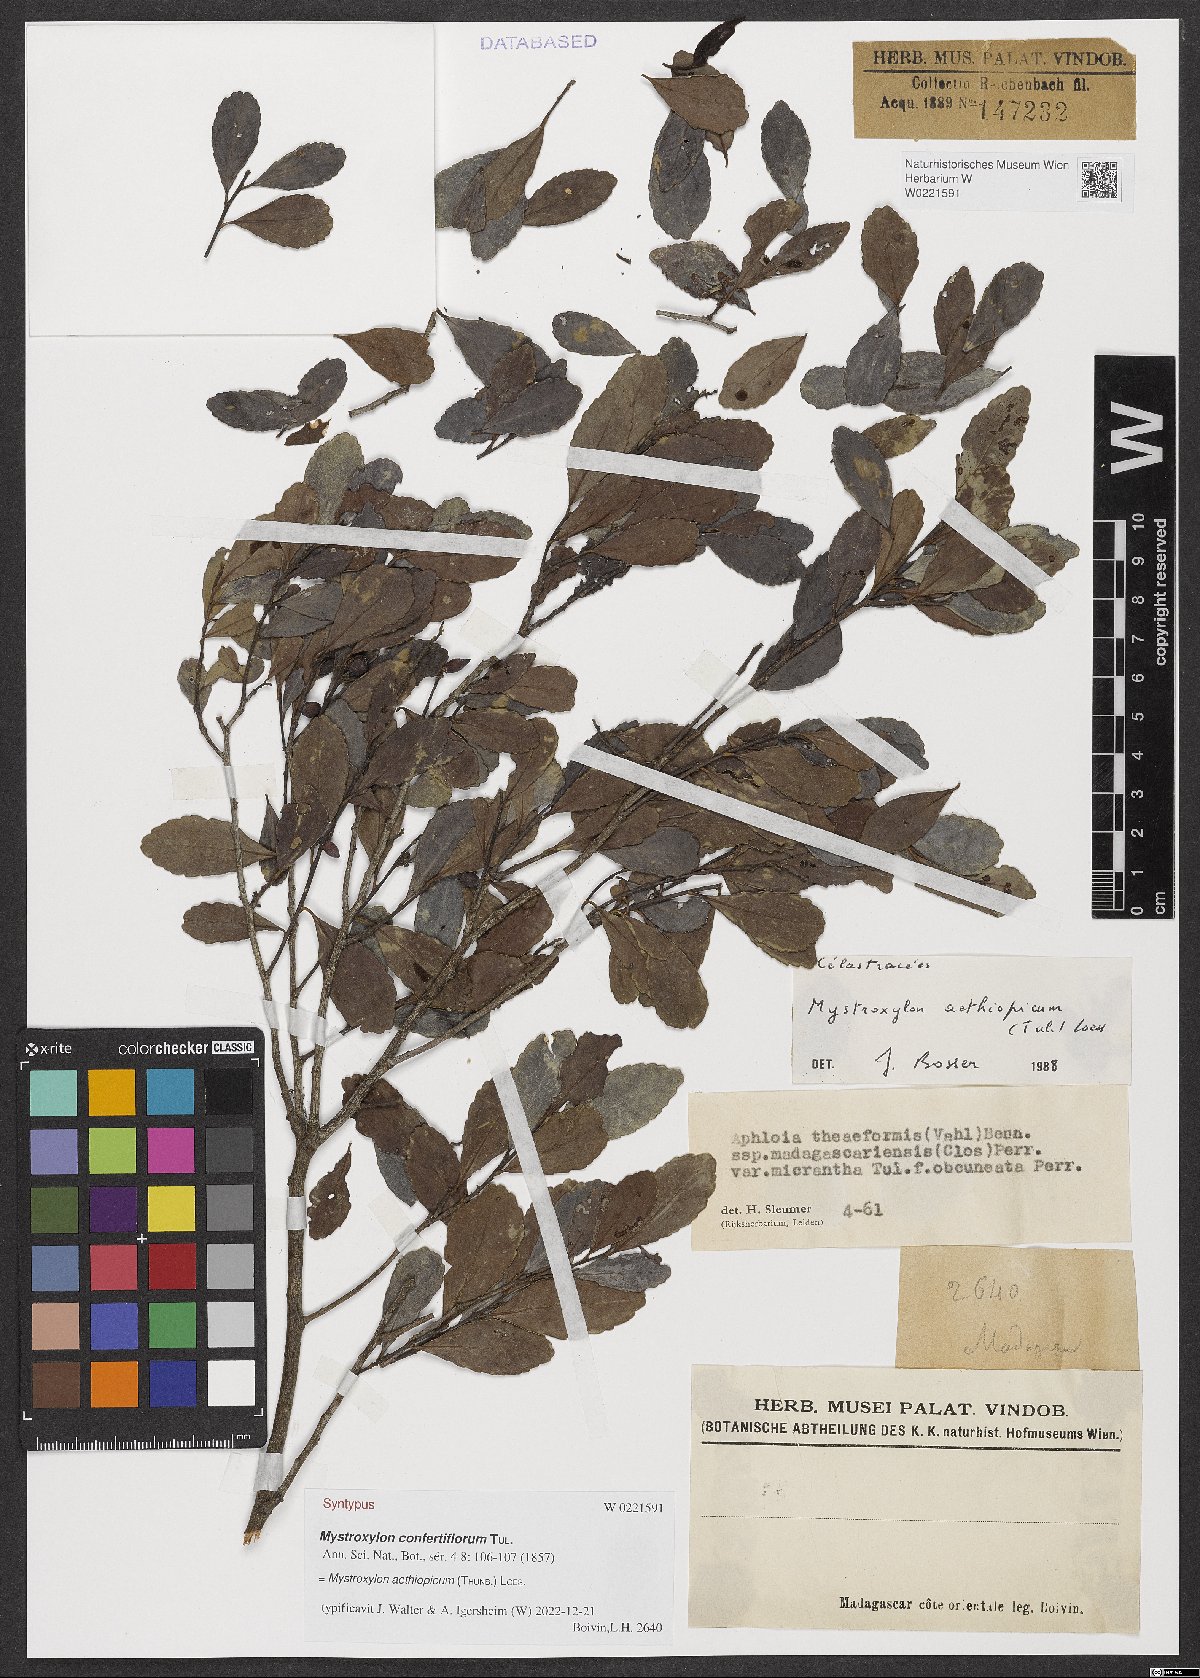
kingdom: Plantae
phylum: Tracheophyta
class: Magnoliopsida
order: Celastrales
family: Celastraceae
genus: Mystroxylon
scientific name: Mystroxylon aethiopicum
